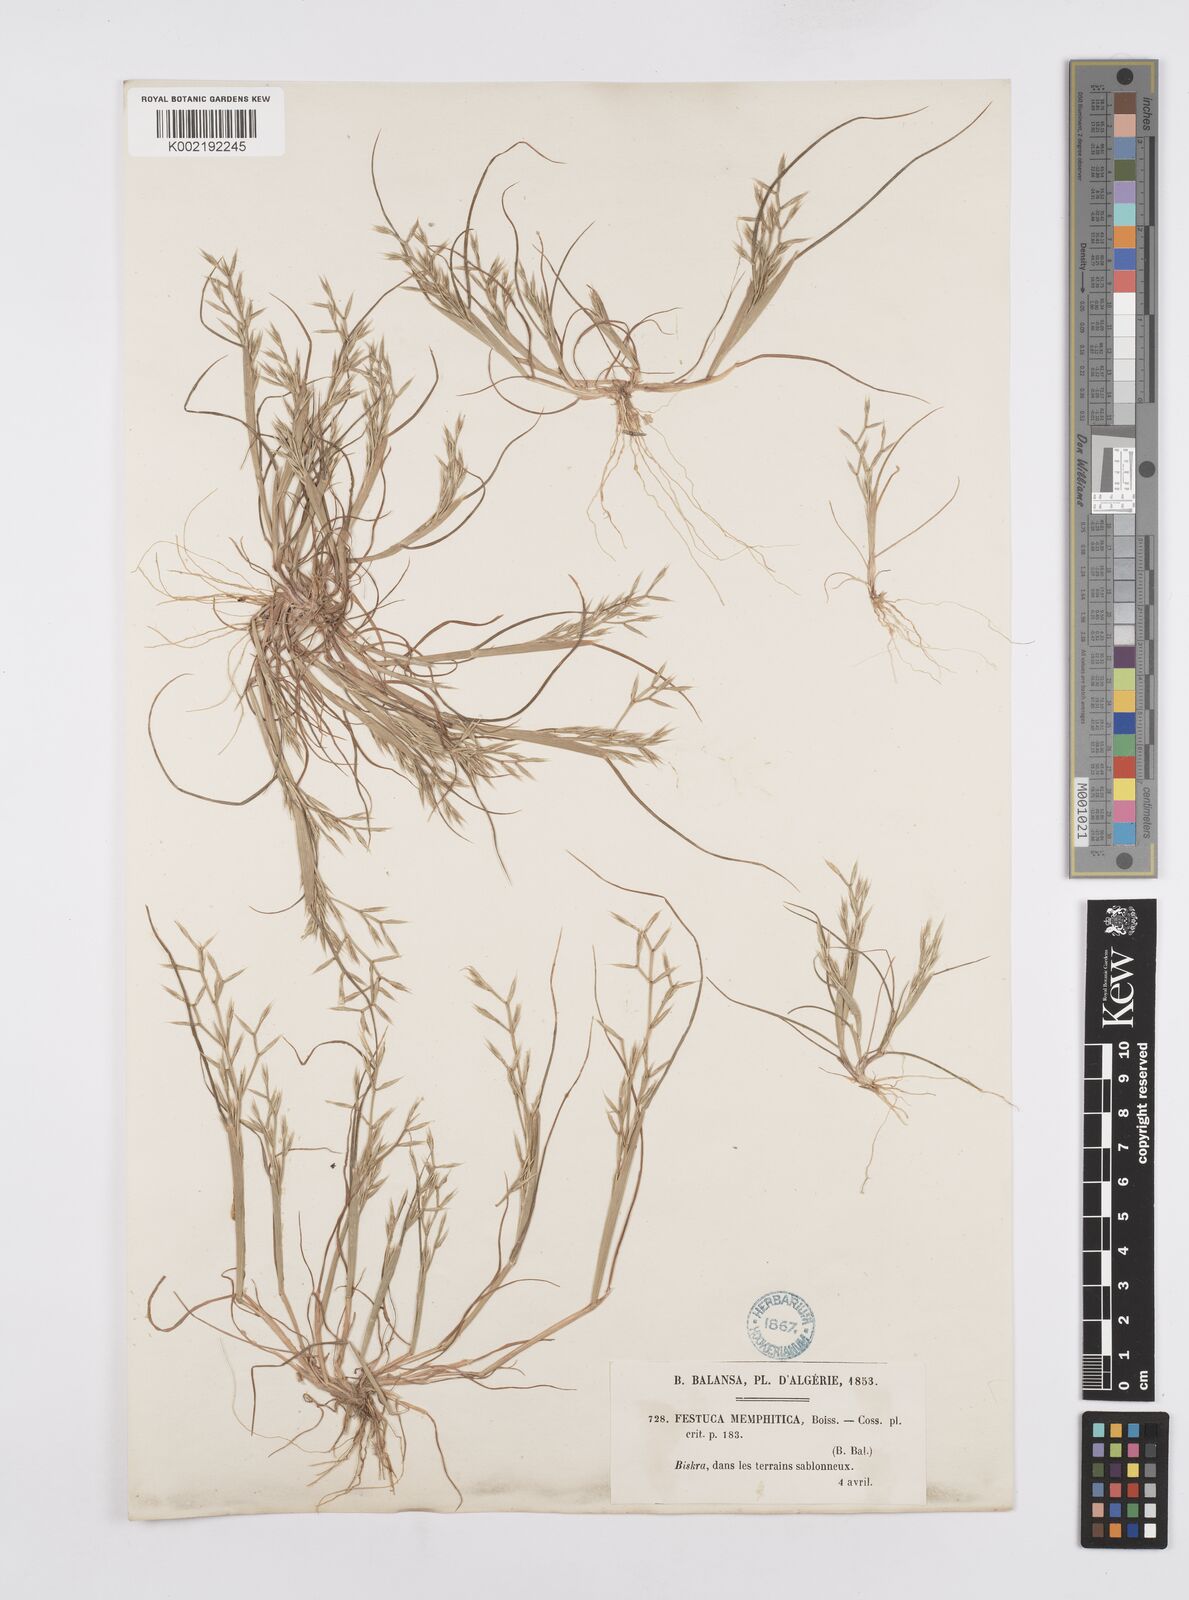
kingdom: Plantae
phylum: Tracheophyta
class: Liliopsida
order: Poales
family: Poaceae
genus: Cutandia
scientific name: Cutandia memphitica
